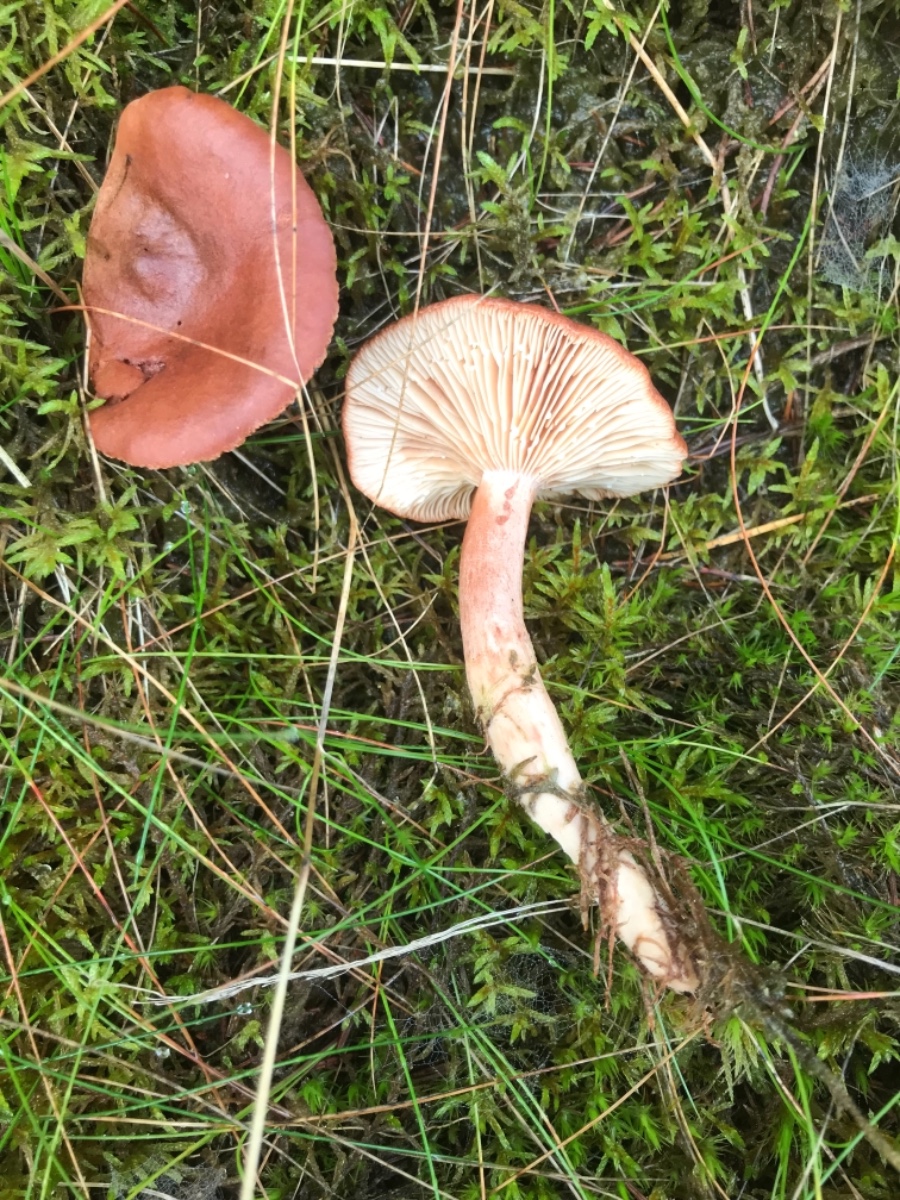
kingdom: Fungi
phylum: Basidiomycota
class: Agaricomycetes
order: Russulales
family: Russulaceae
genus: Lactarius
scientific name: Lactarius rufus
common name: rødbrun mælkehat
